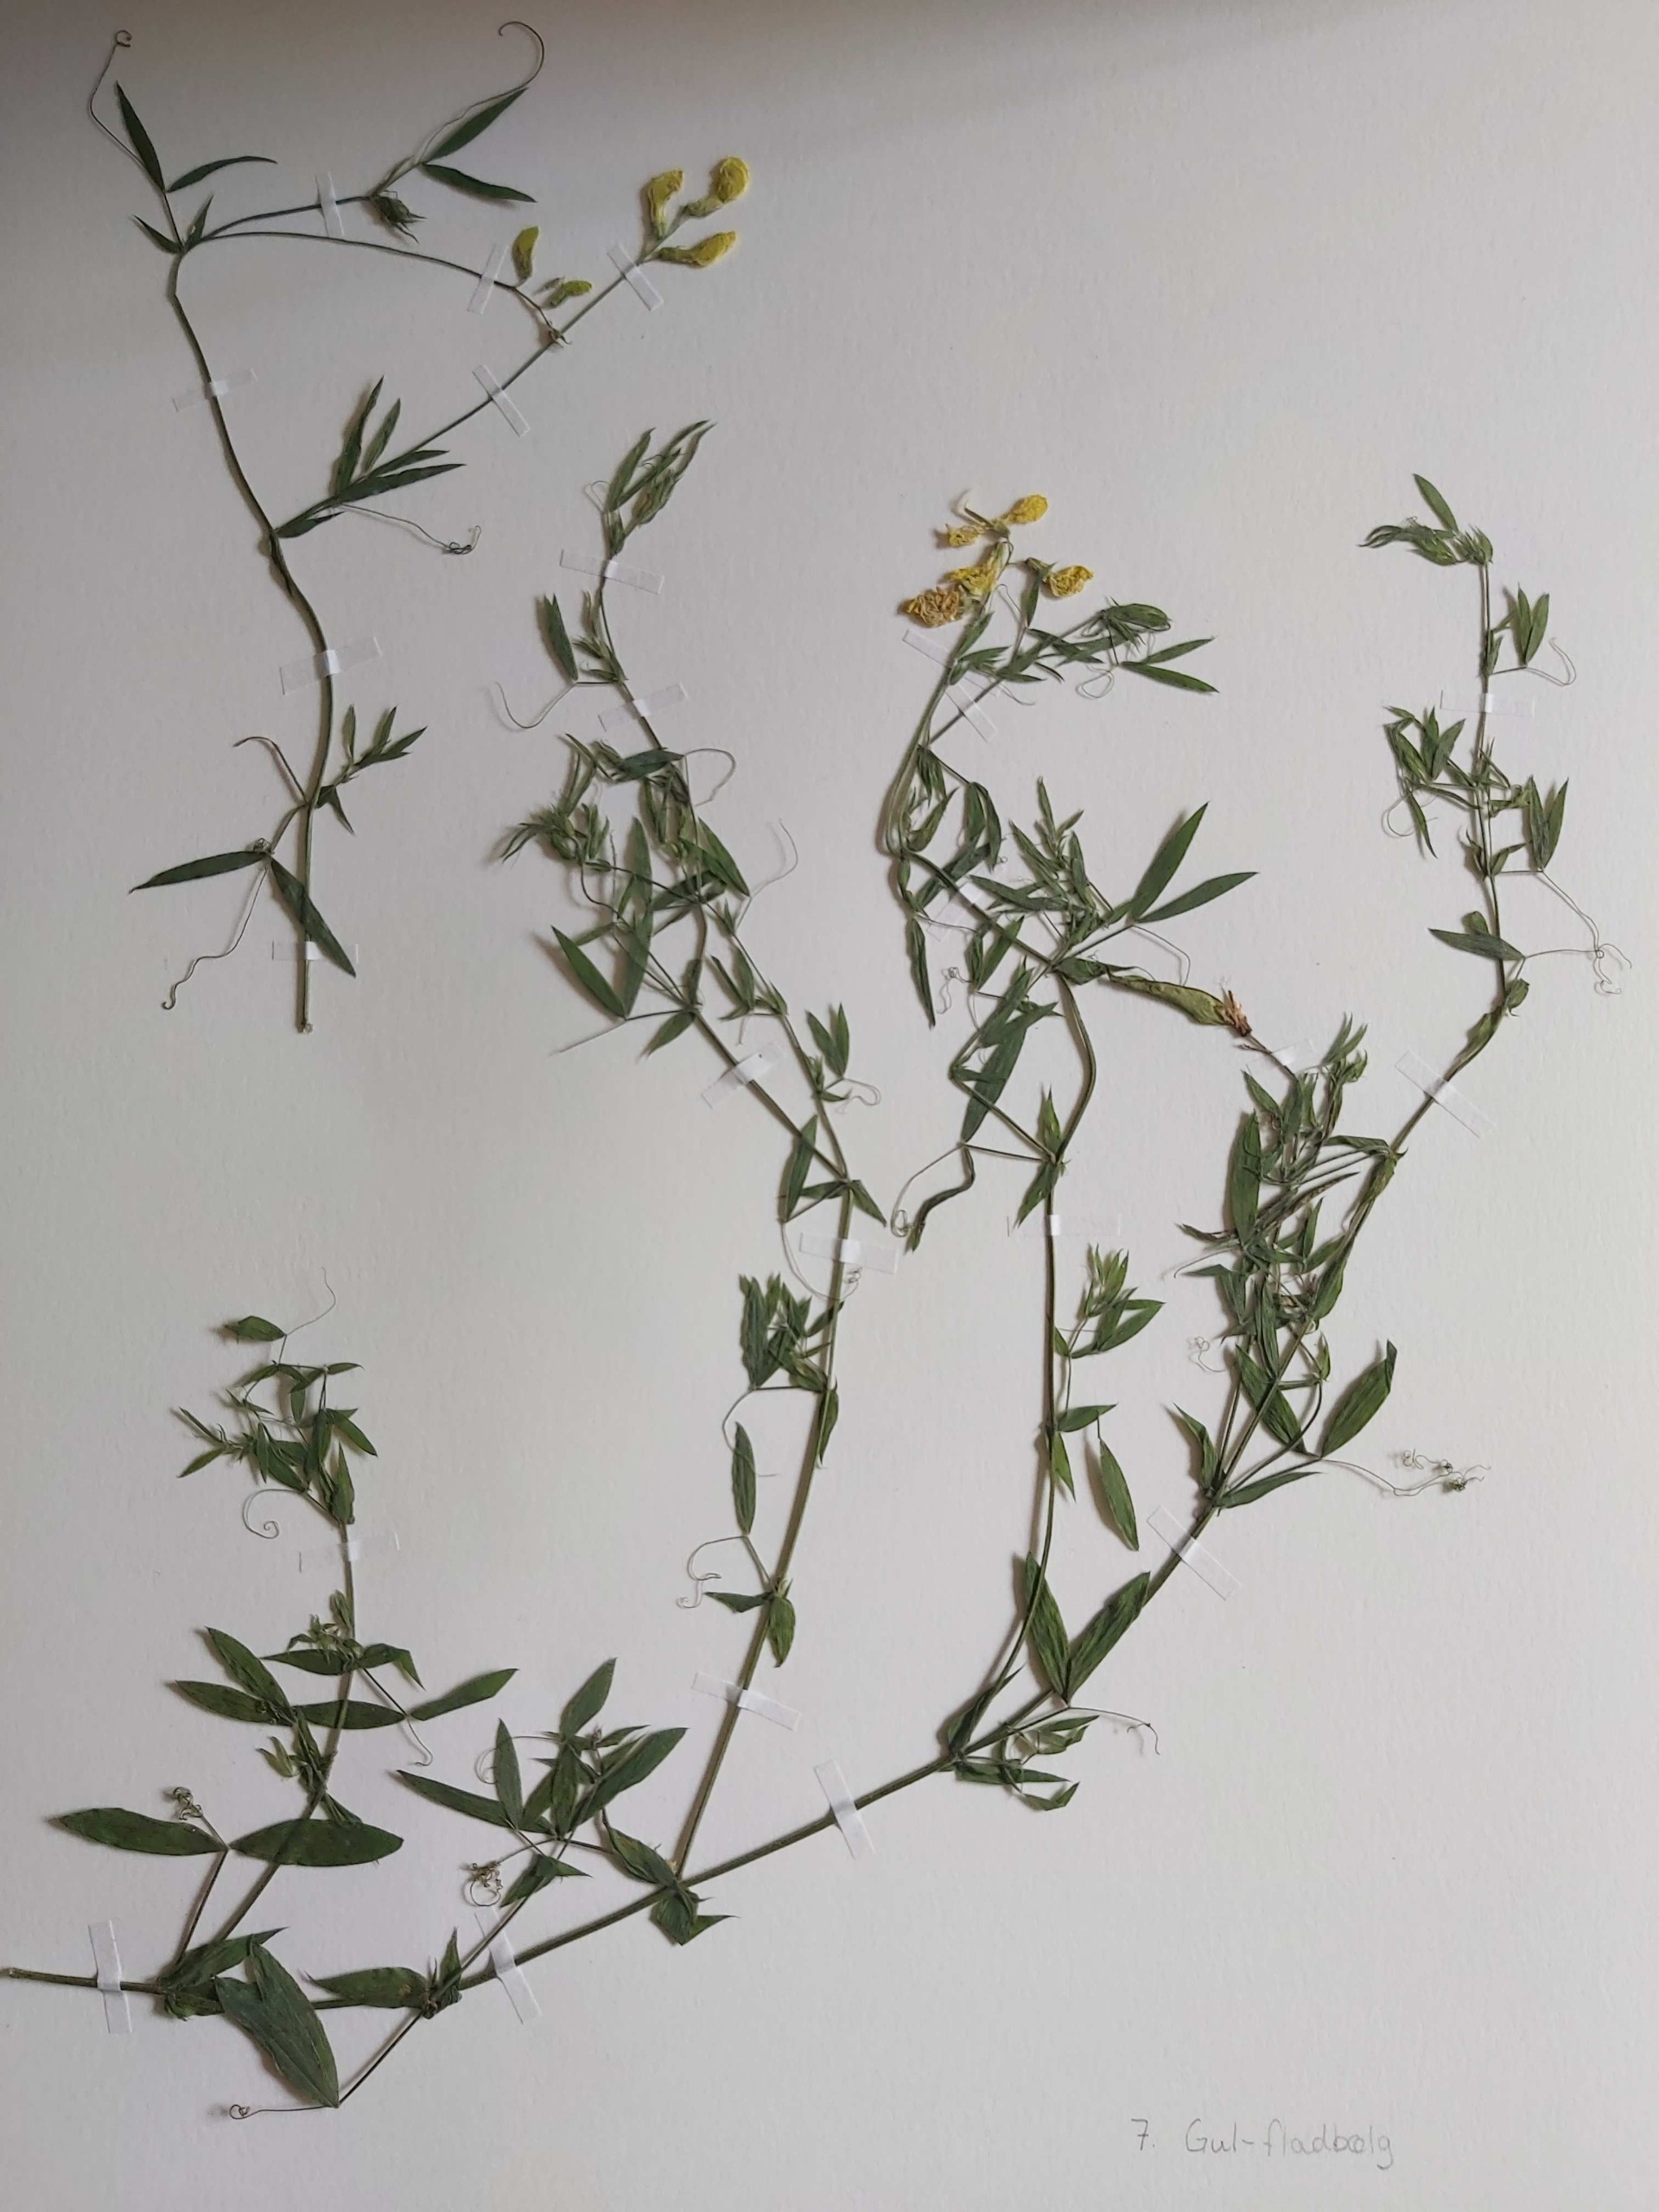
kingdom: Plantae
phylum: Tracheophyta
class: Magnoliopsida
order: Fabales
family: Fabaceae
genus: Lathyrus
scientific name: Lathyrus pratensis
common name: Gul fladbælg
